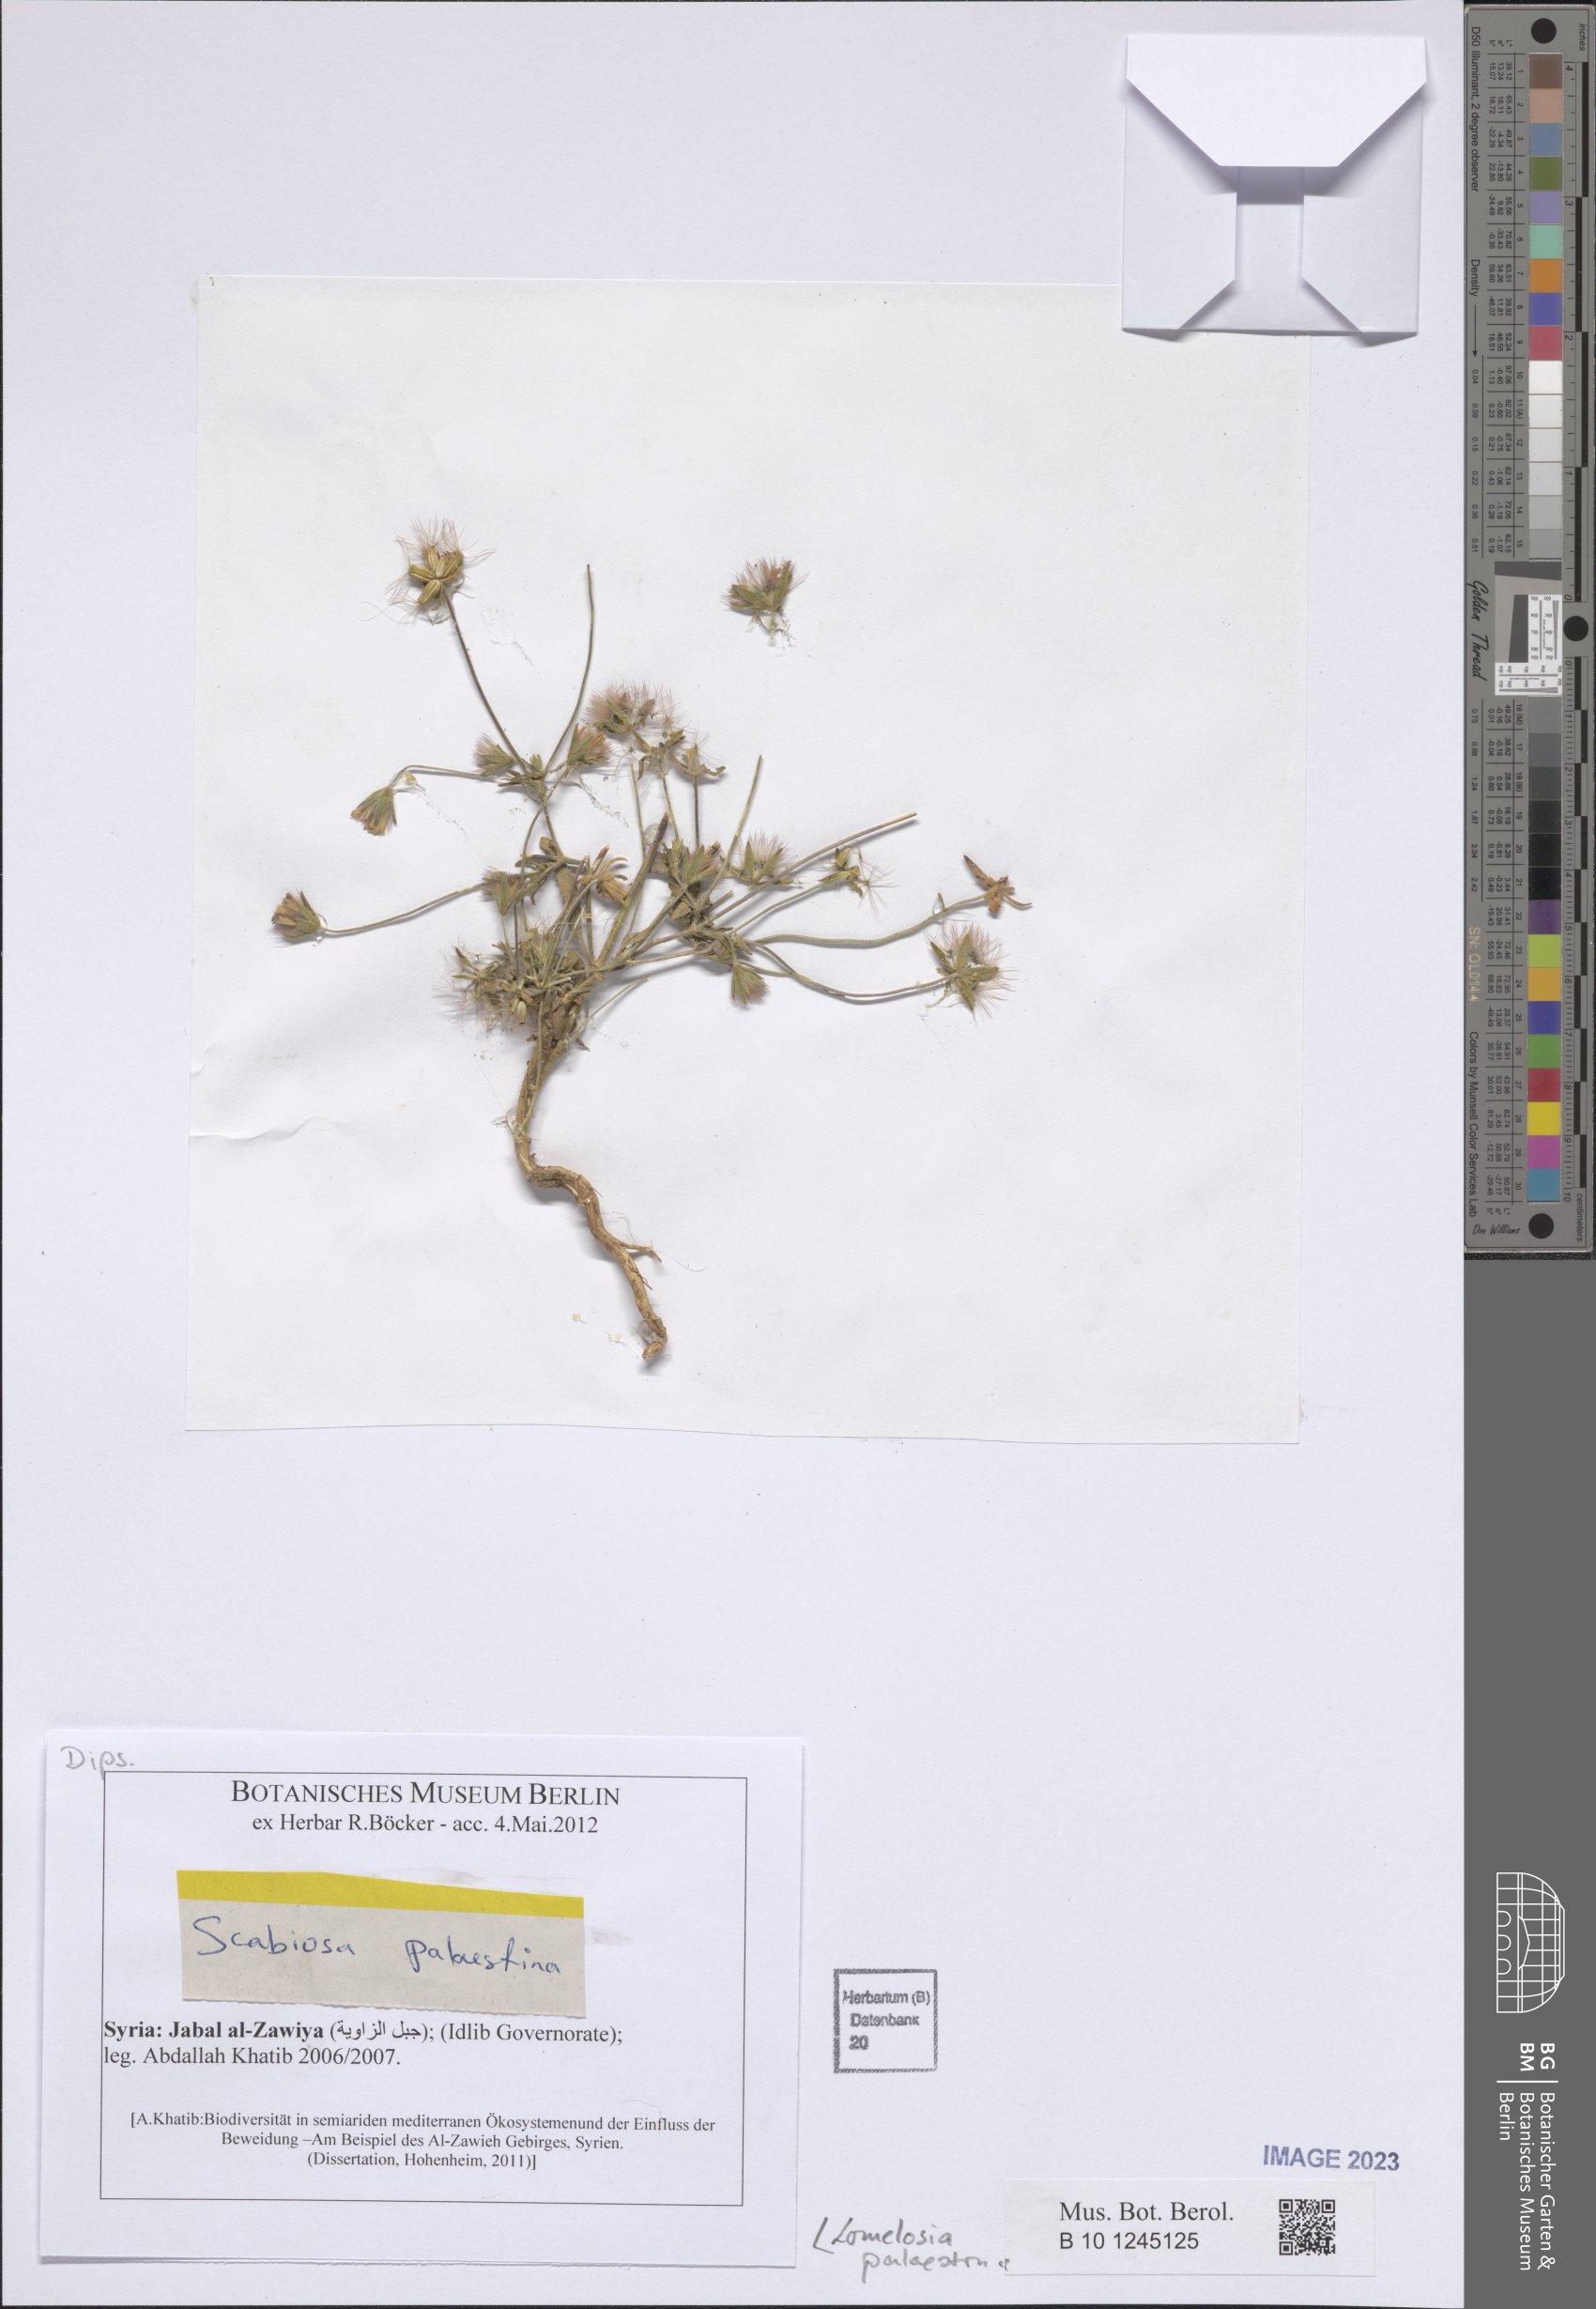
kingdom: Plantae
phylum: Tracheophyta
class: Magnoliopsida
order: Dipsacales
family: Caprifoliaceae
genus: Lomelosia
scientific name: Lomelosia palaestina
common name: Balkan pincushions
